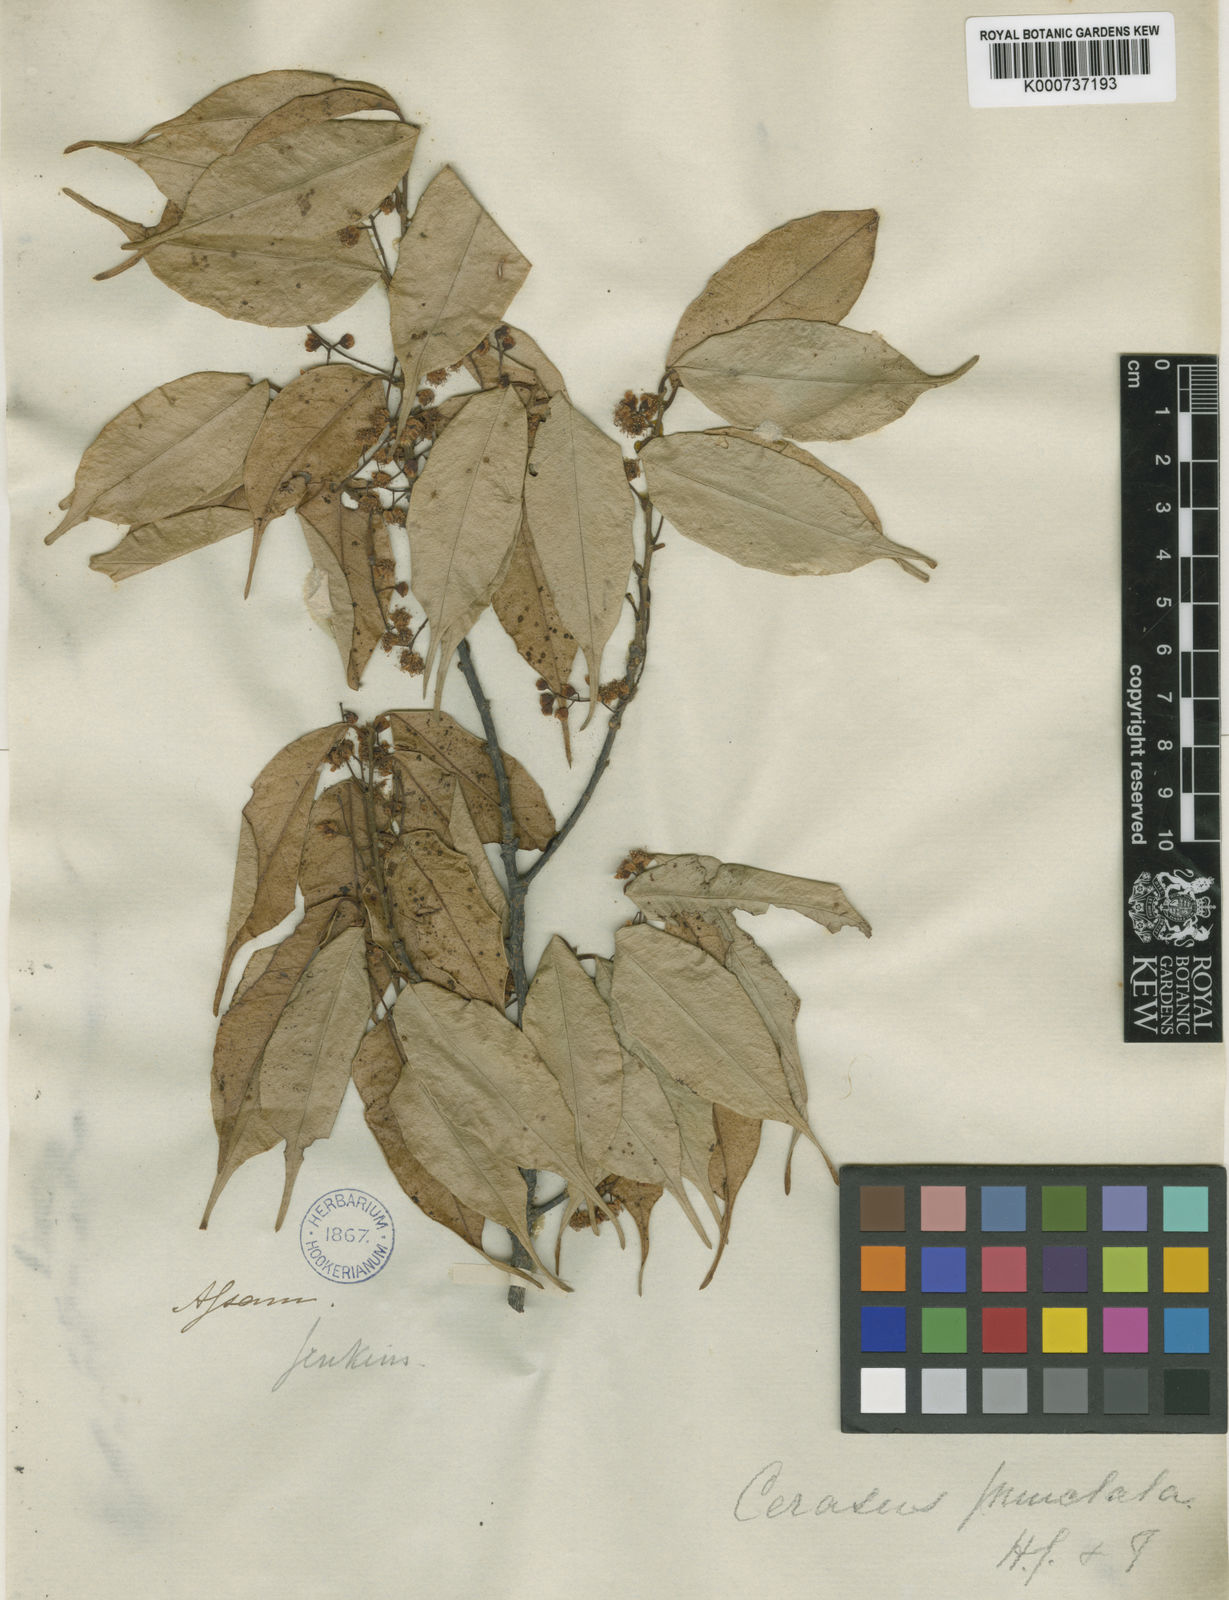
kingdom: Plantae
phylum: Tracheophyta
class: Magnoliopsida
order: Rosales
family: Rosaceae
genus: Prunus
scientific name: Prunus phaeosticta
